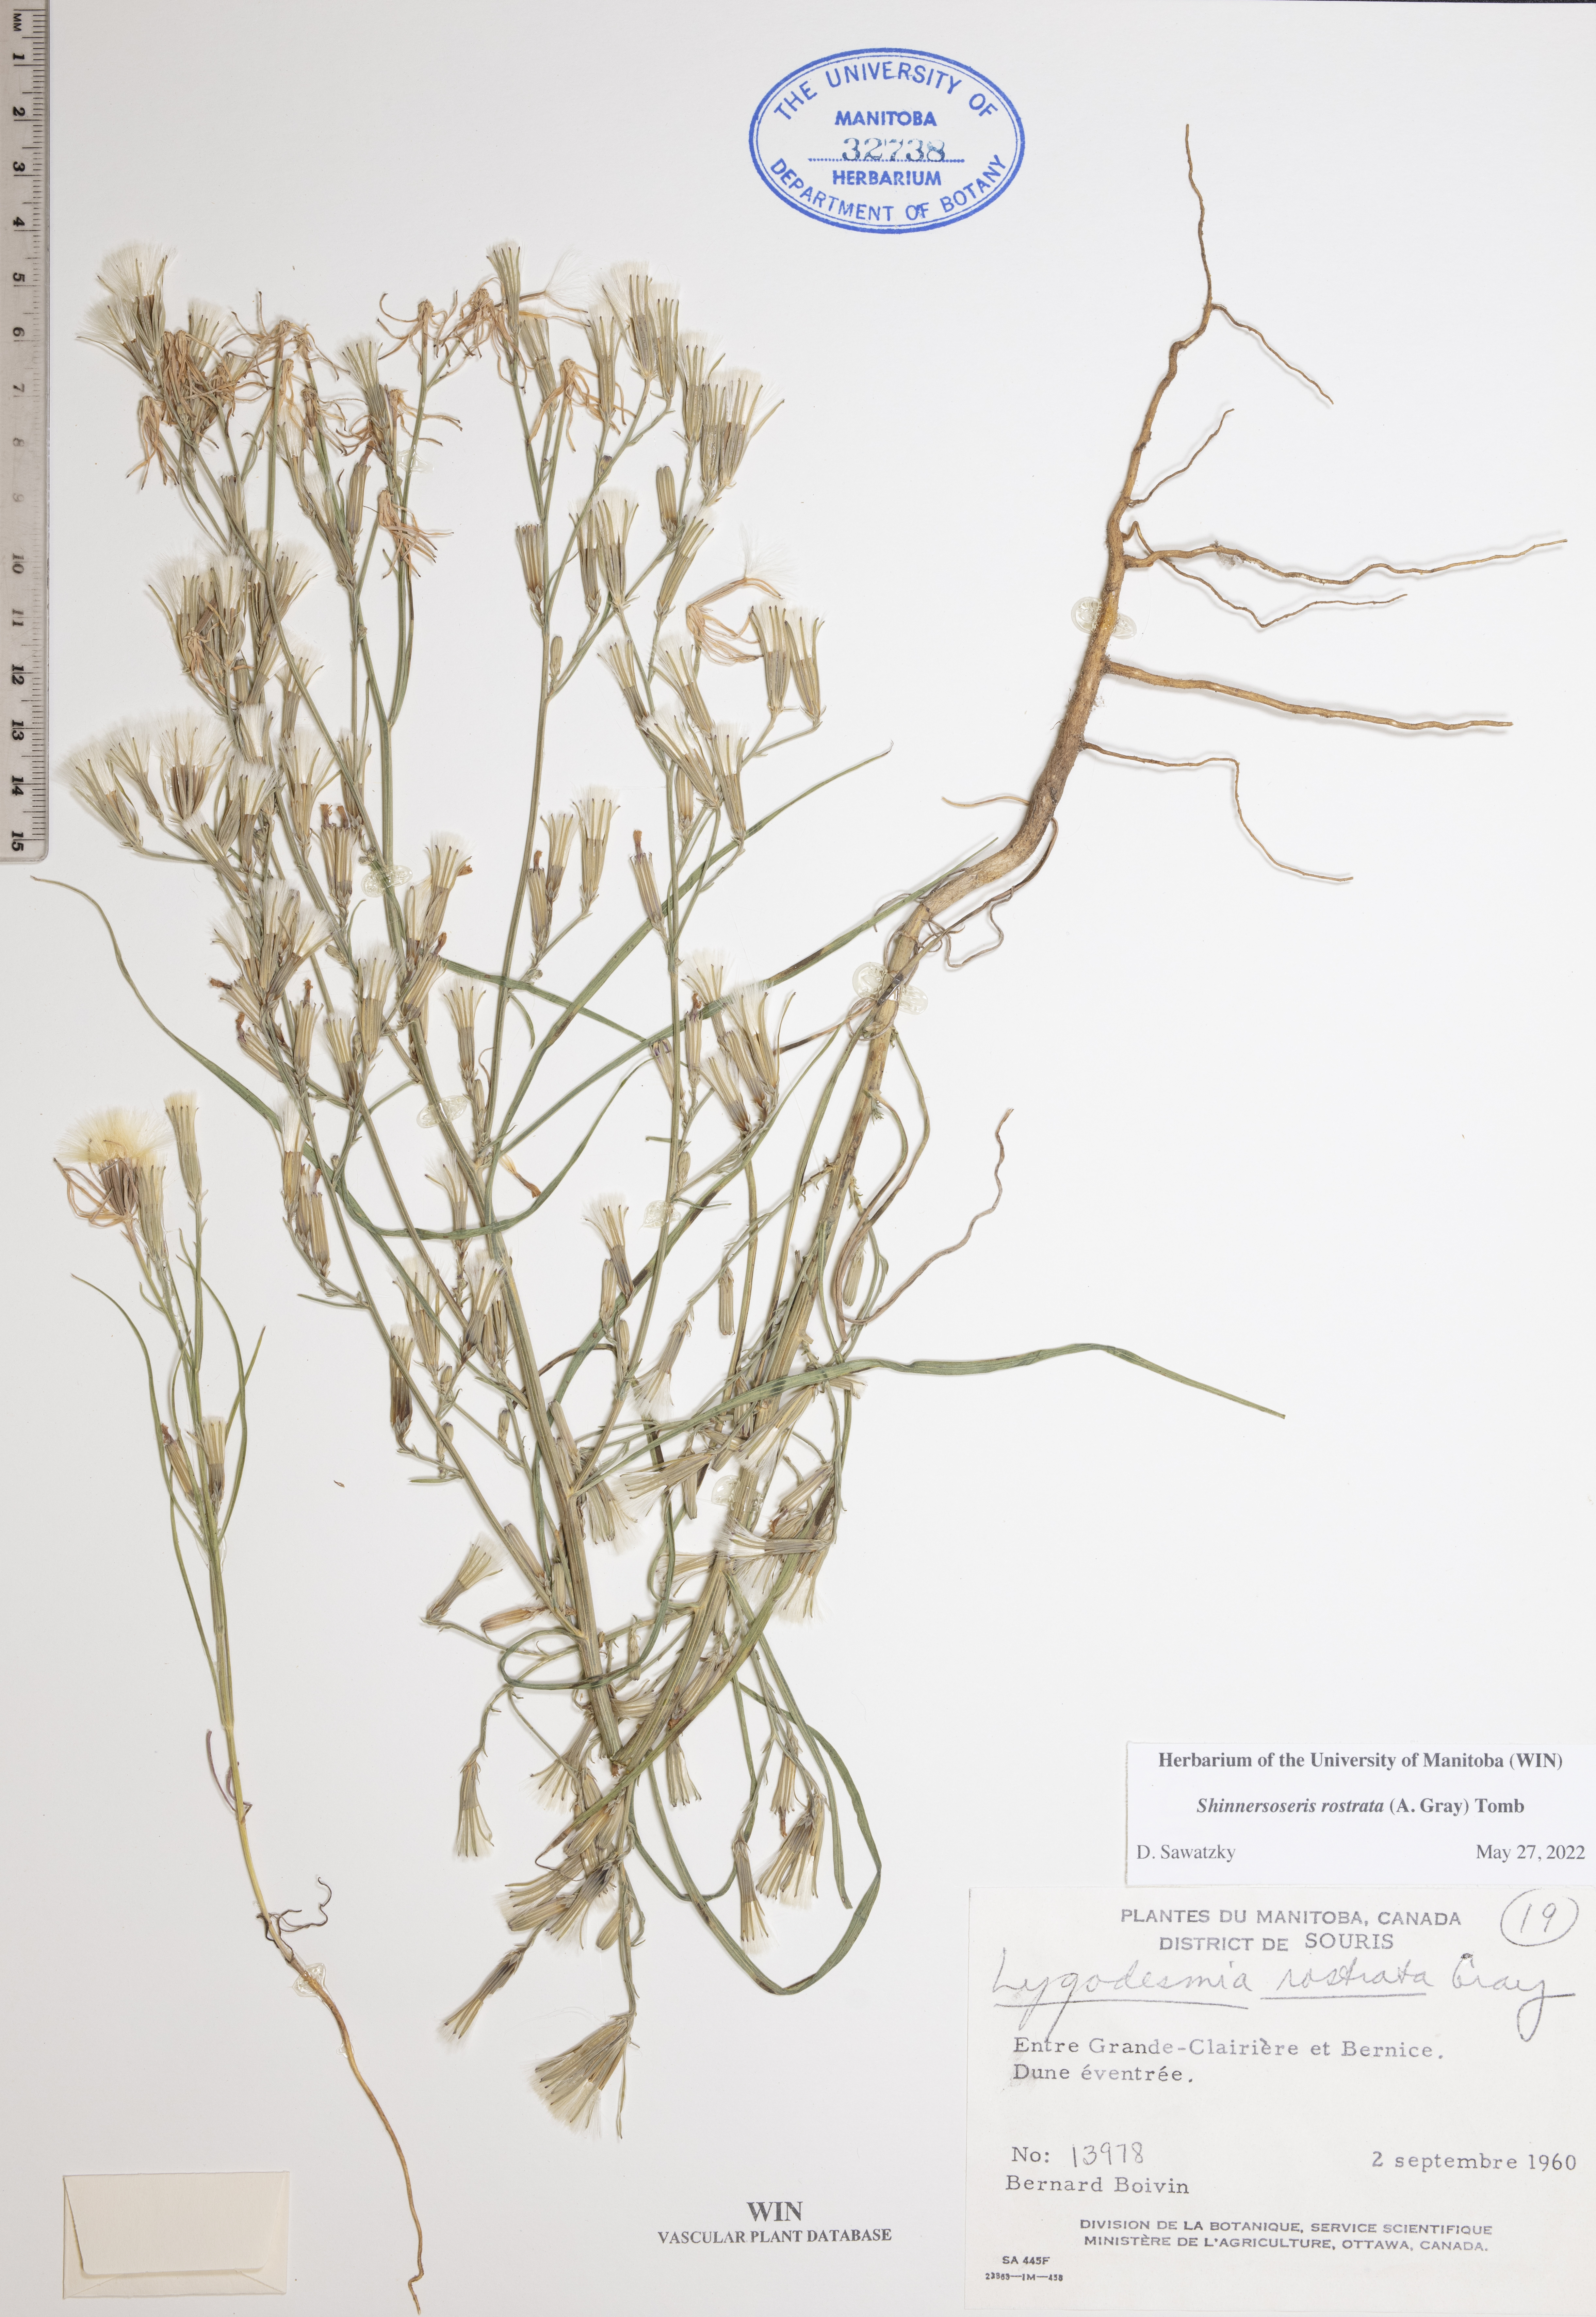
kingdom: Plantae
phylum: Tracheophyta
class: Magnoliopsida
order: Asterales
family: Asteraceae
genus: Shinnersoseris
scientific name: Shinnersoseris rostrata
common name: Annual skeleton-weed
